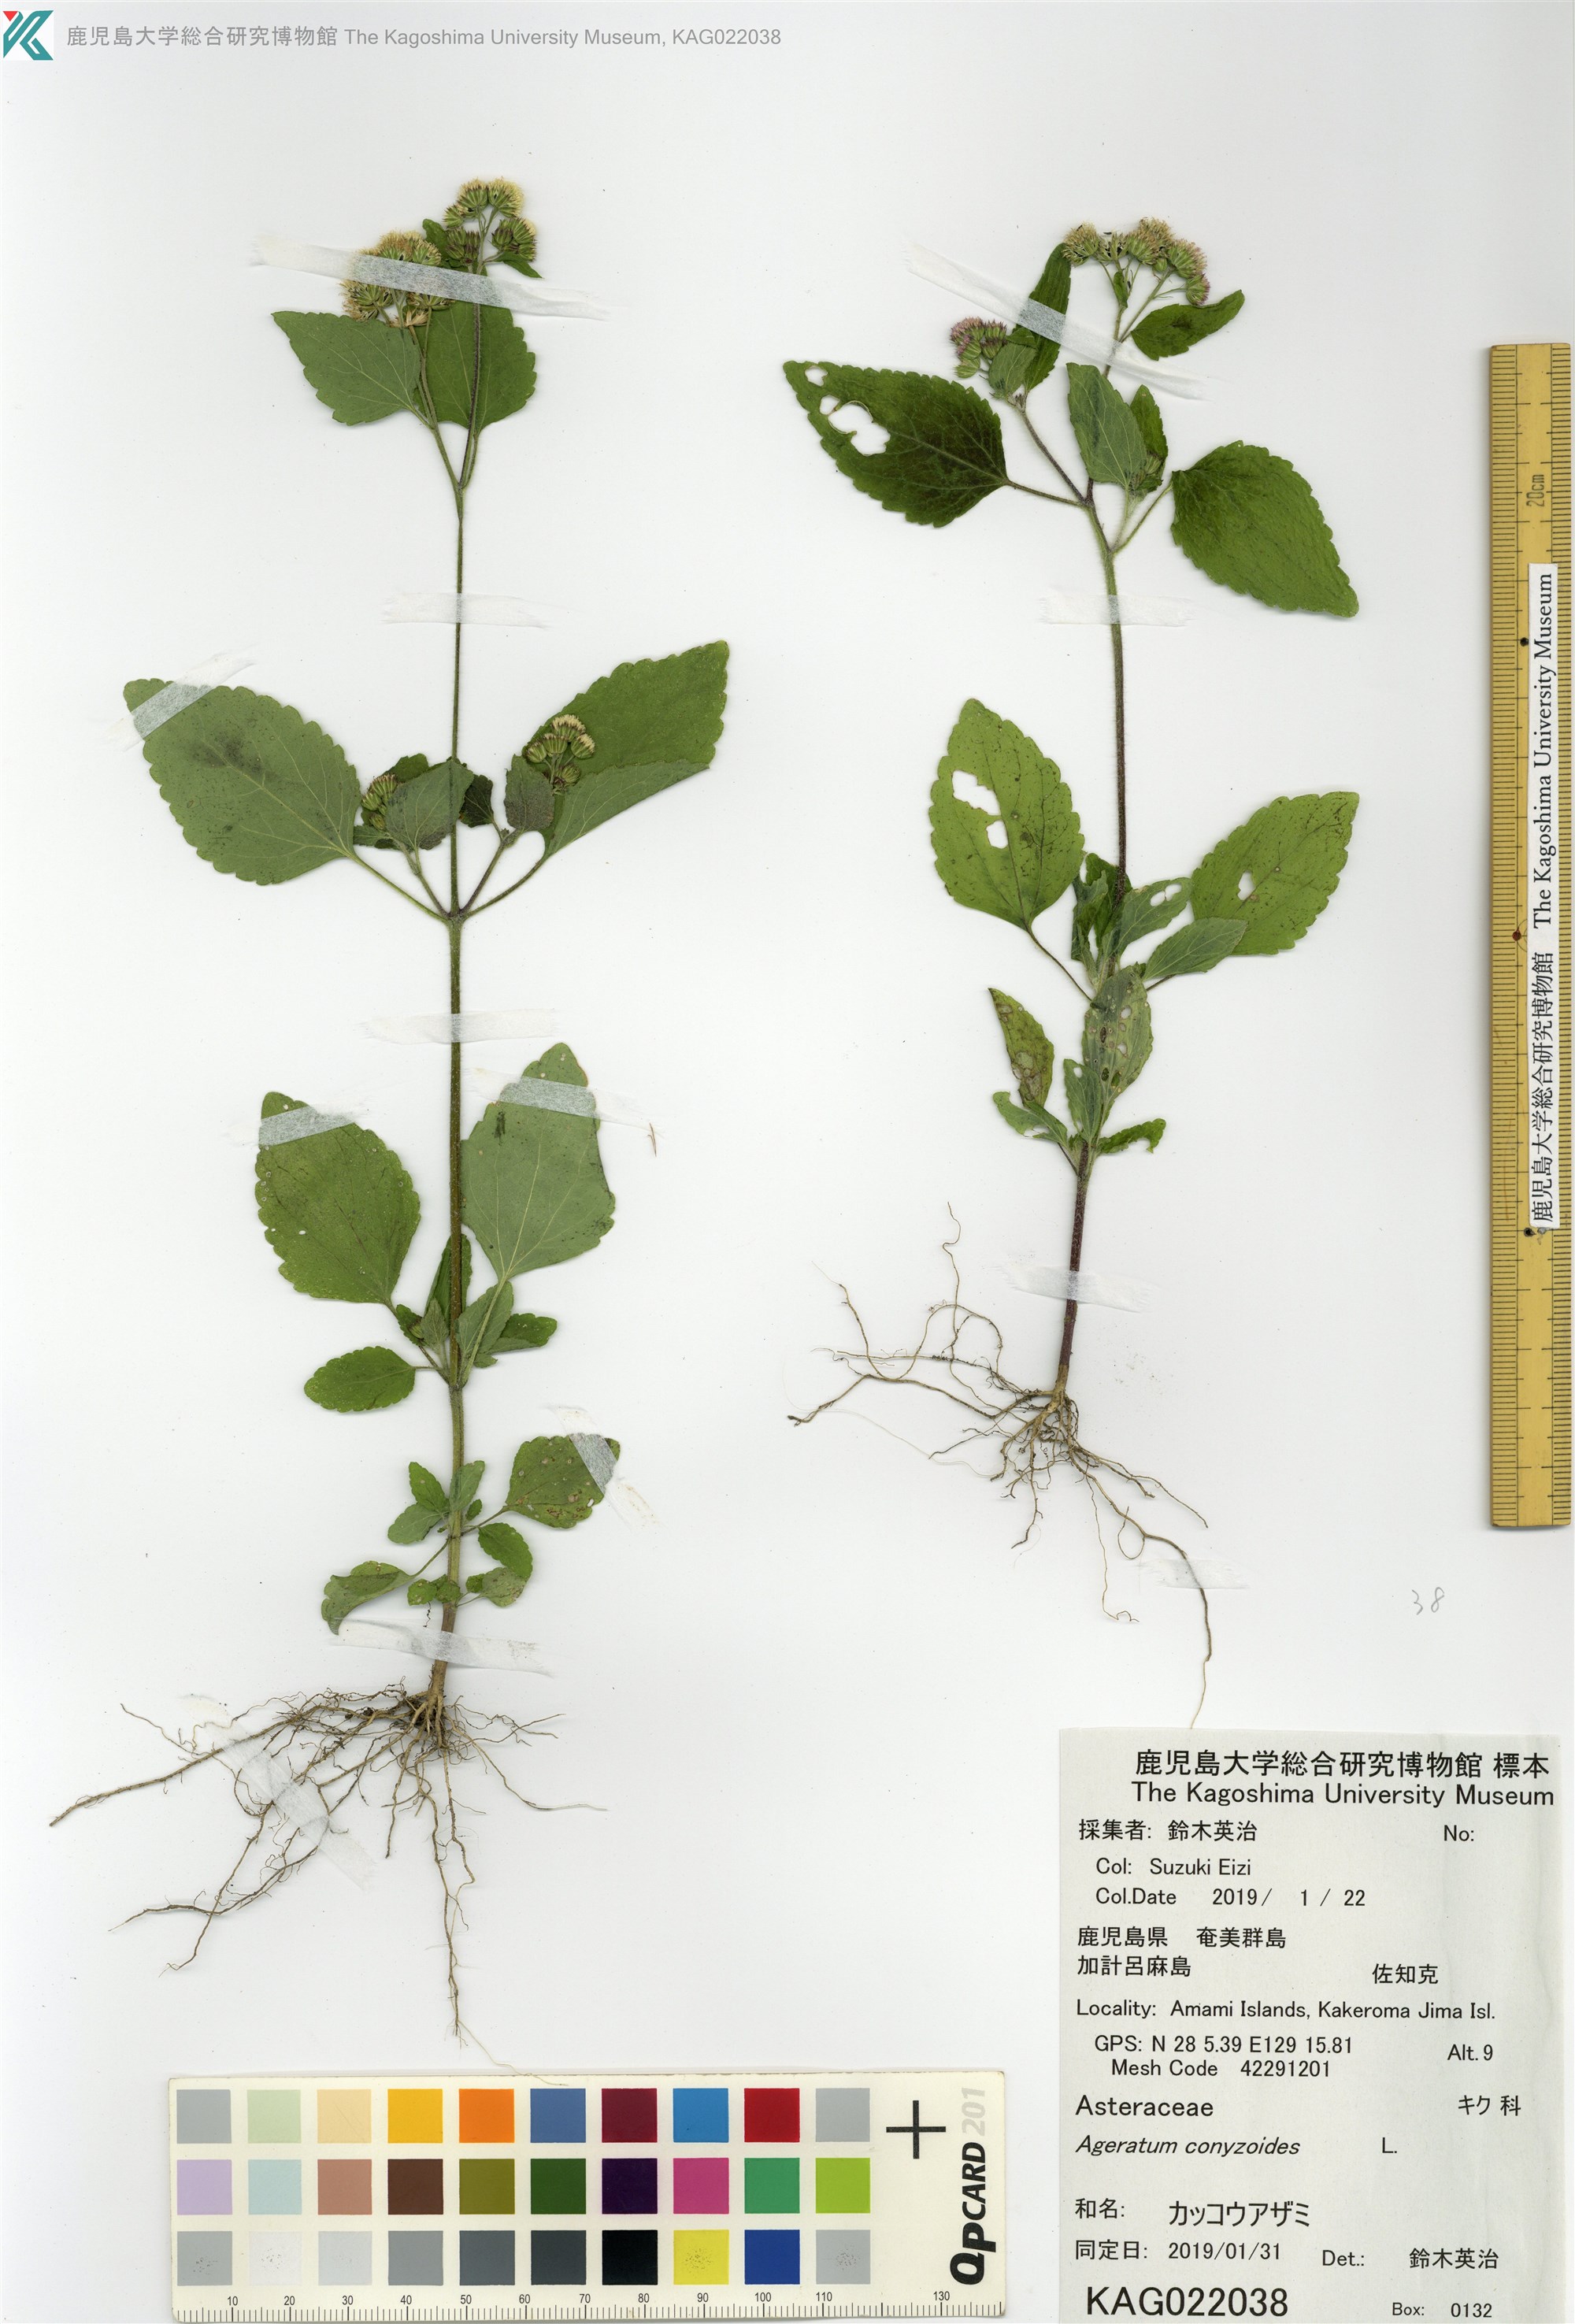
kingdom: Plantae
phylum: Tracheophyta
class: Magnoliopsida
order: Asterales
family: Asteraceae
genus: Ageratum
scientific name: Ageratum conyzoides
